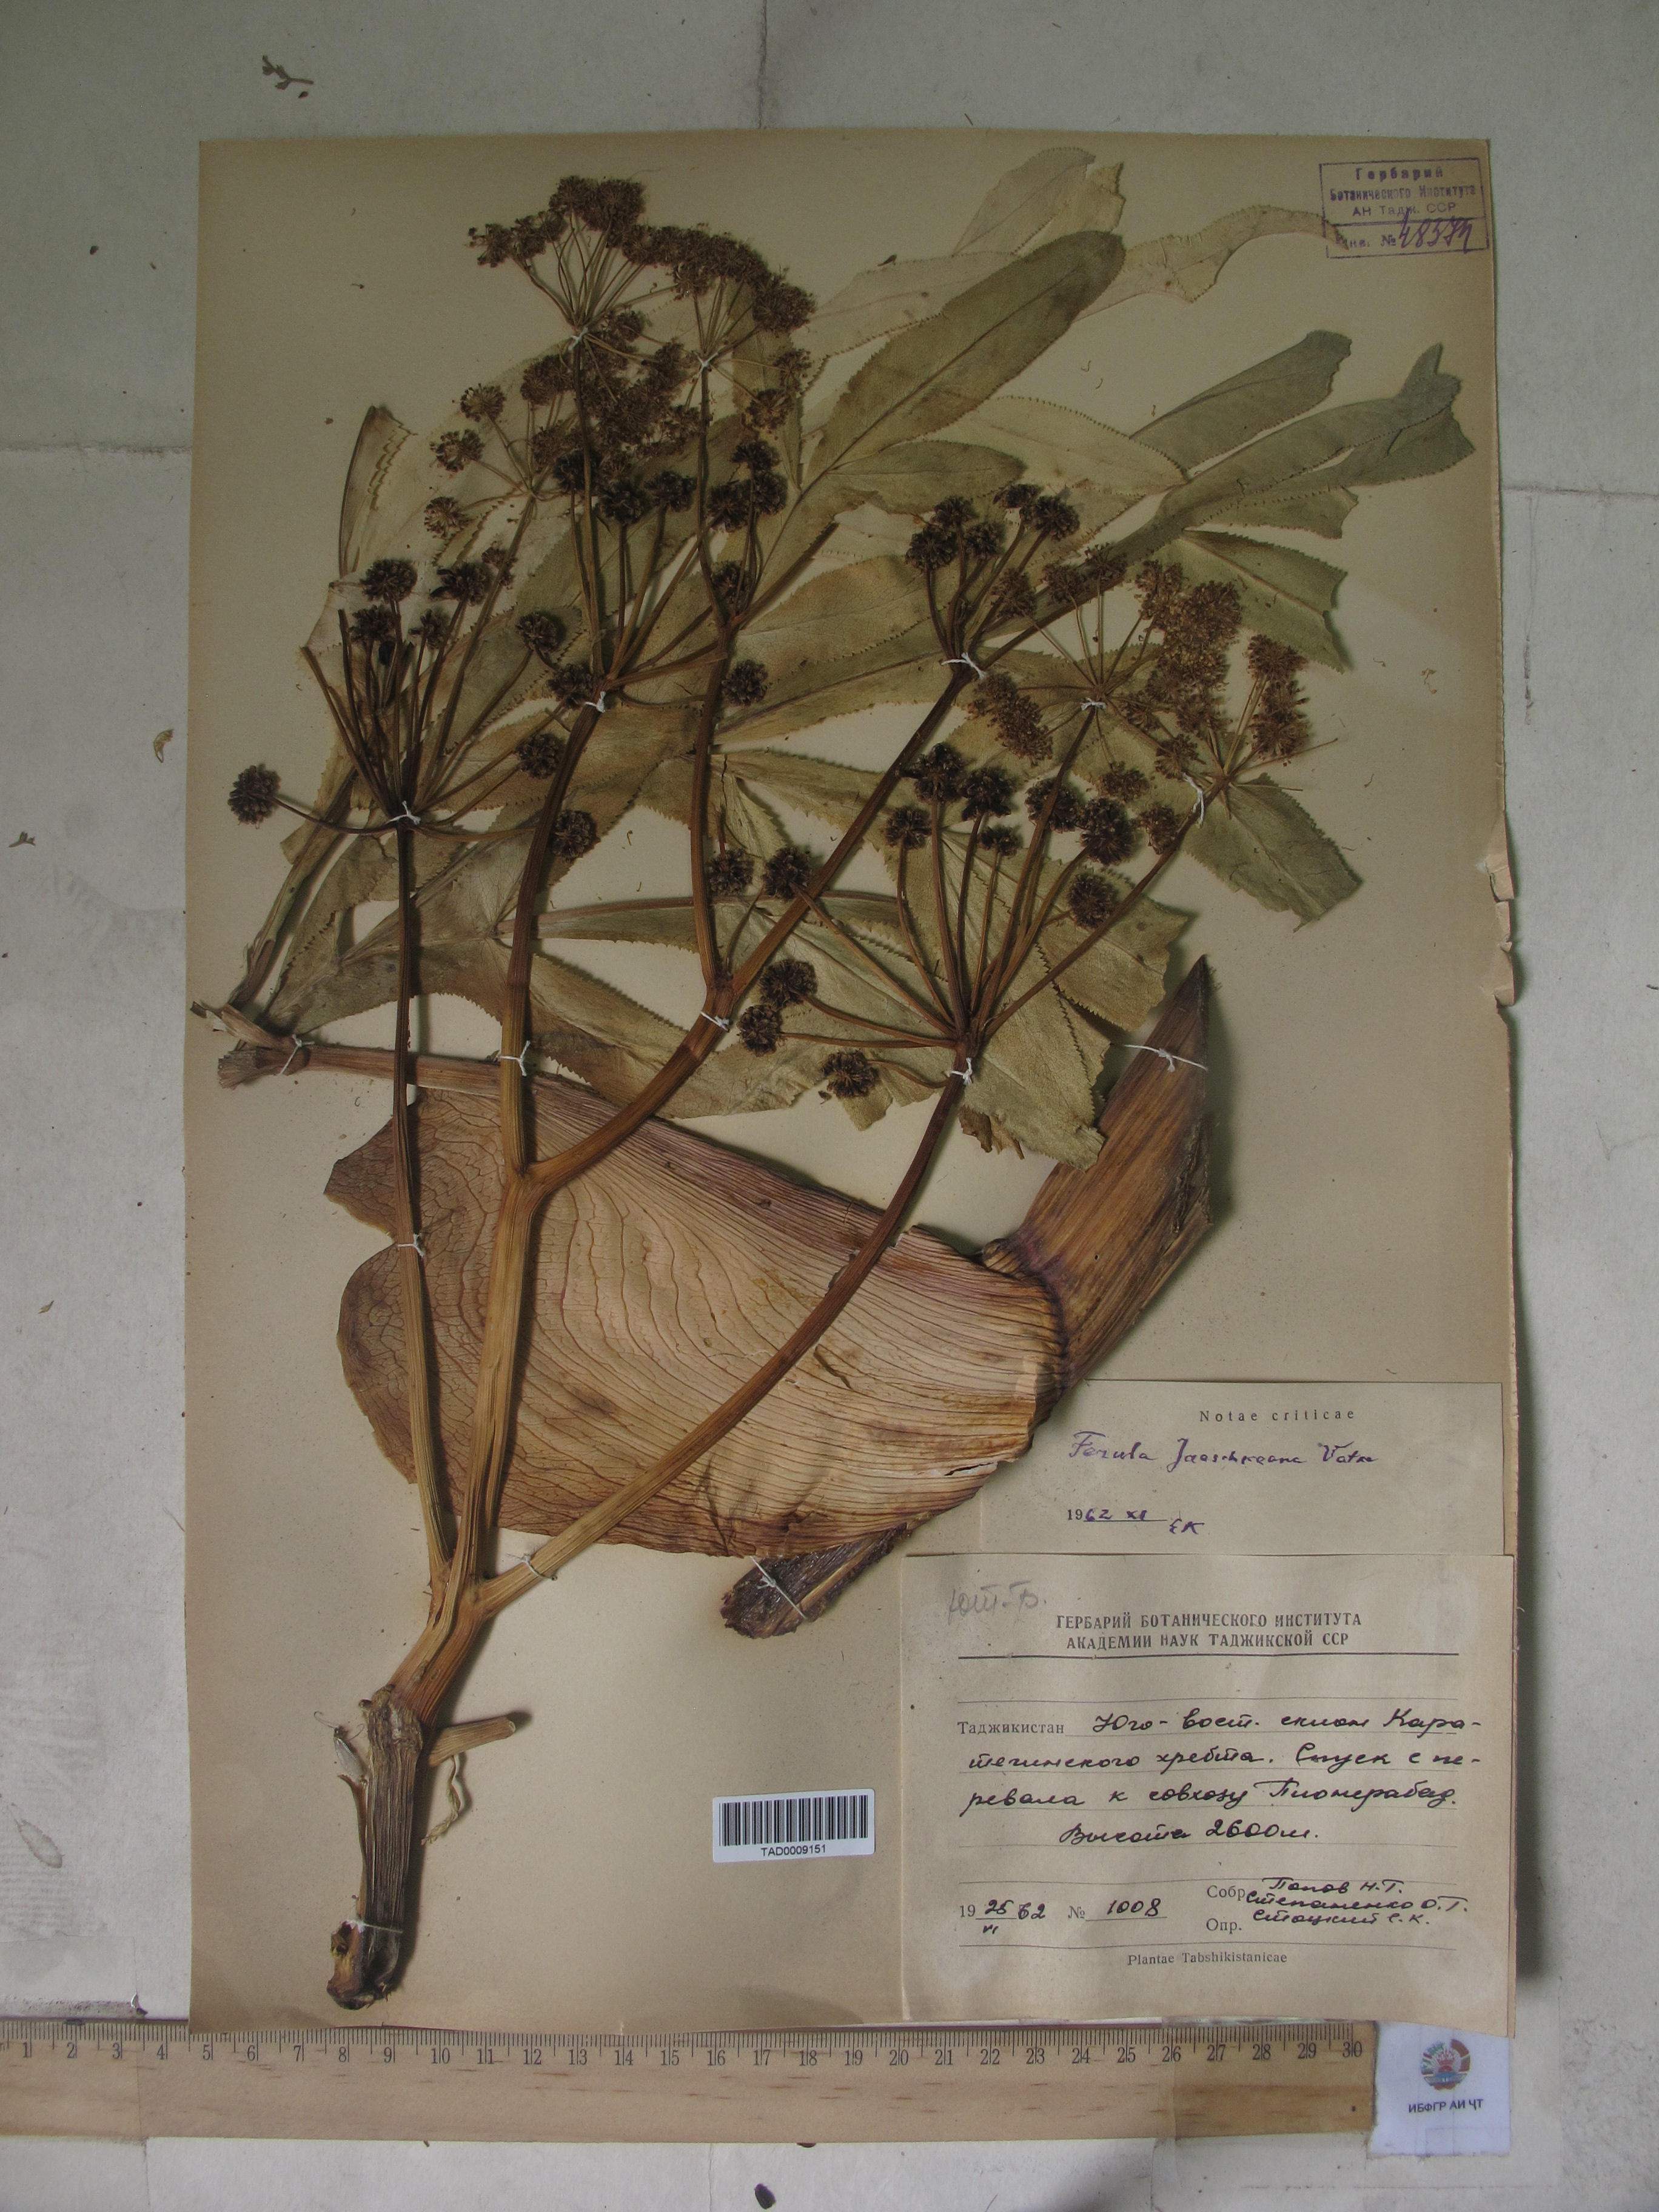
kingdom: Plantae
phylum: Tracheophyta
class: Magnoliopsida
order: Apiales
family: Apiaceae
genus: Ferula
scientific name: Ferula jaeschkeana
